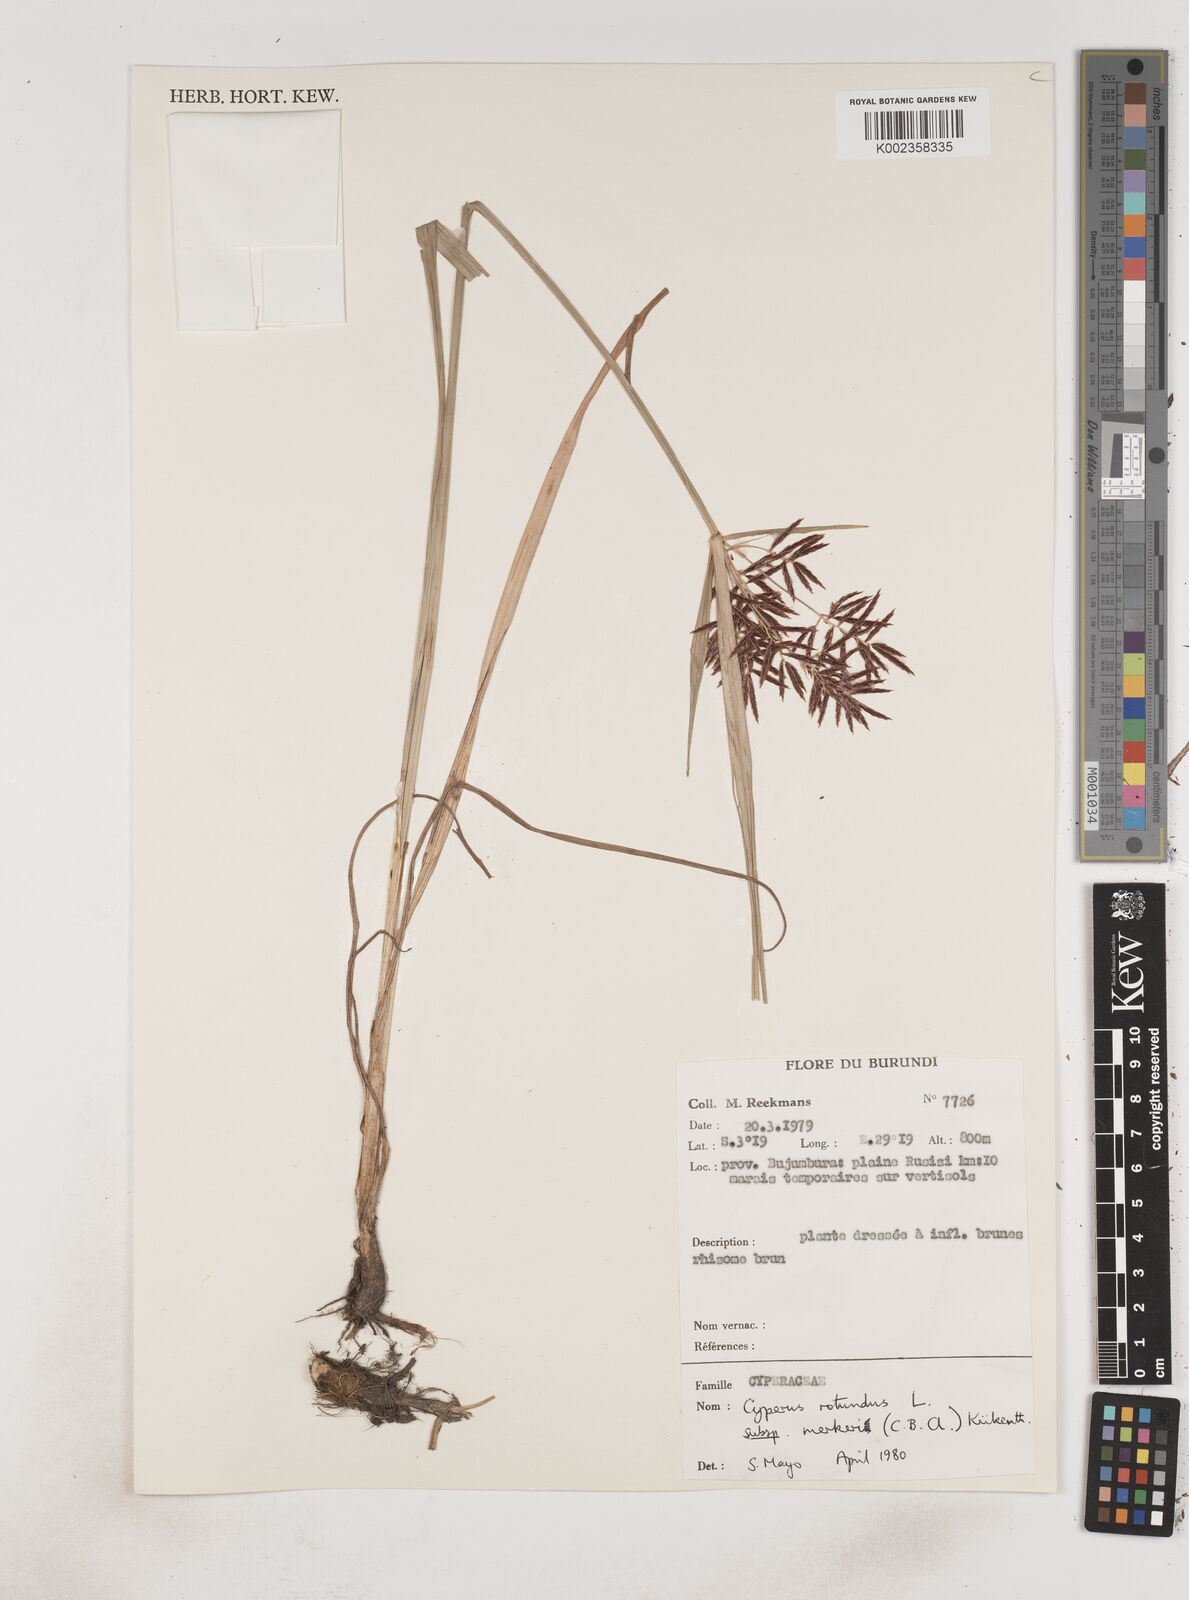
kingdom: Plantae
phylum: Tracheophyta
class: Liliopsida
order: Poales
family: Cyperaceae
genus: Cyperus
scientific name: Cyperus tuberosus
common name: Nut grass
